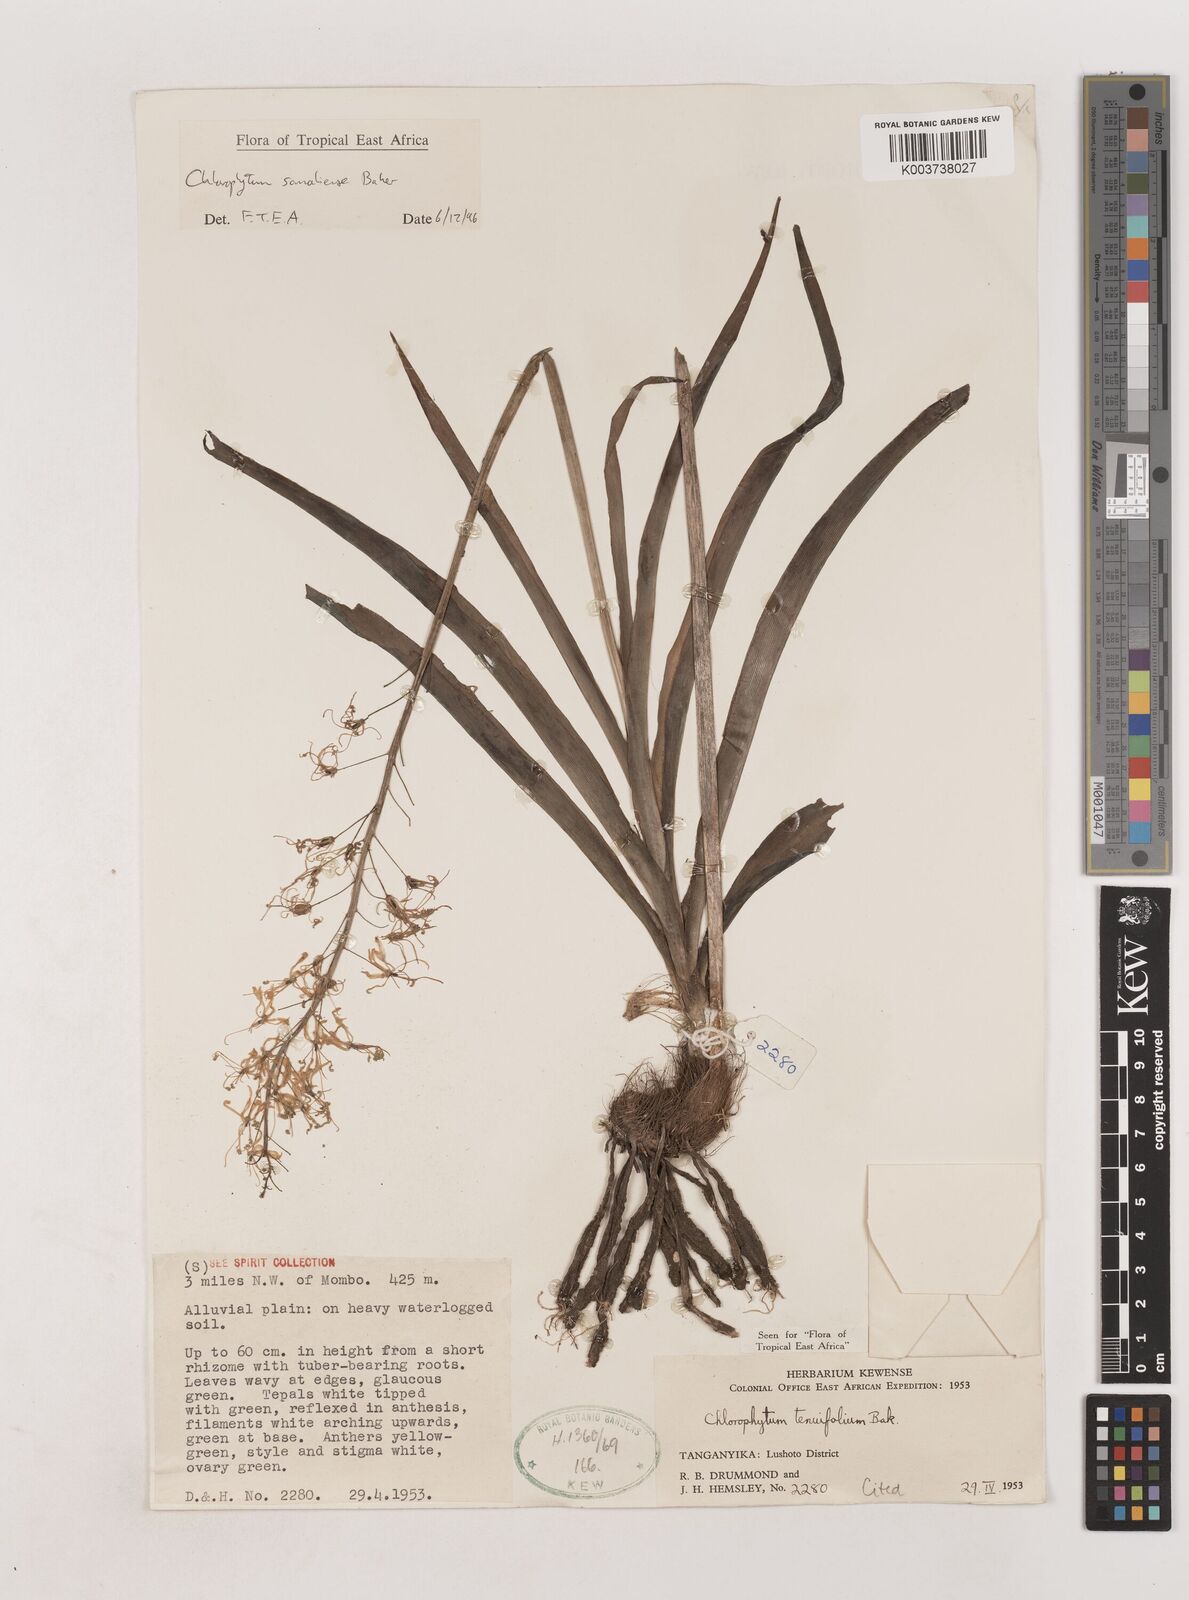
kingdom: Plantae
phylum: Tracheophyta
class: Liliopsida
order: Asparagales
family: Asparagaceae
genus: Chlorophytum
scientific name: Chlorophytum somaliense
